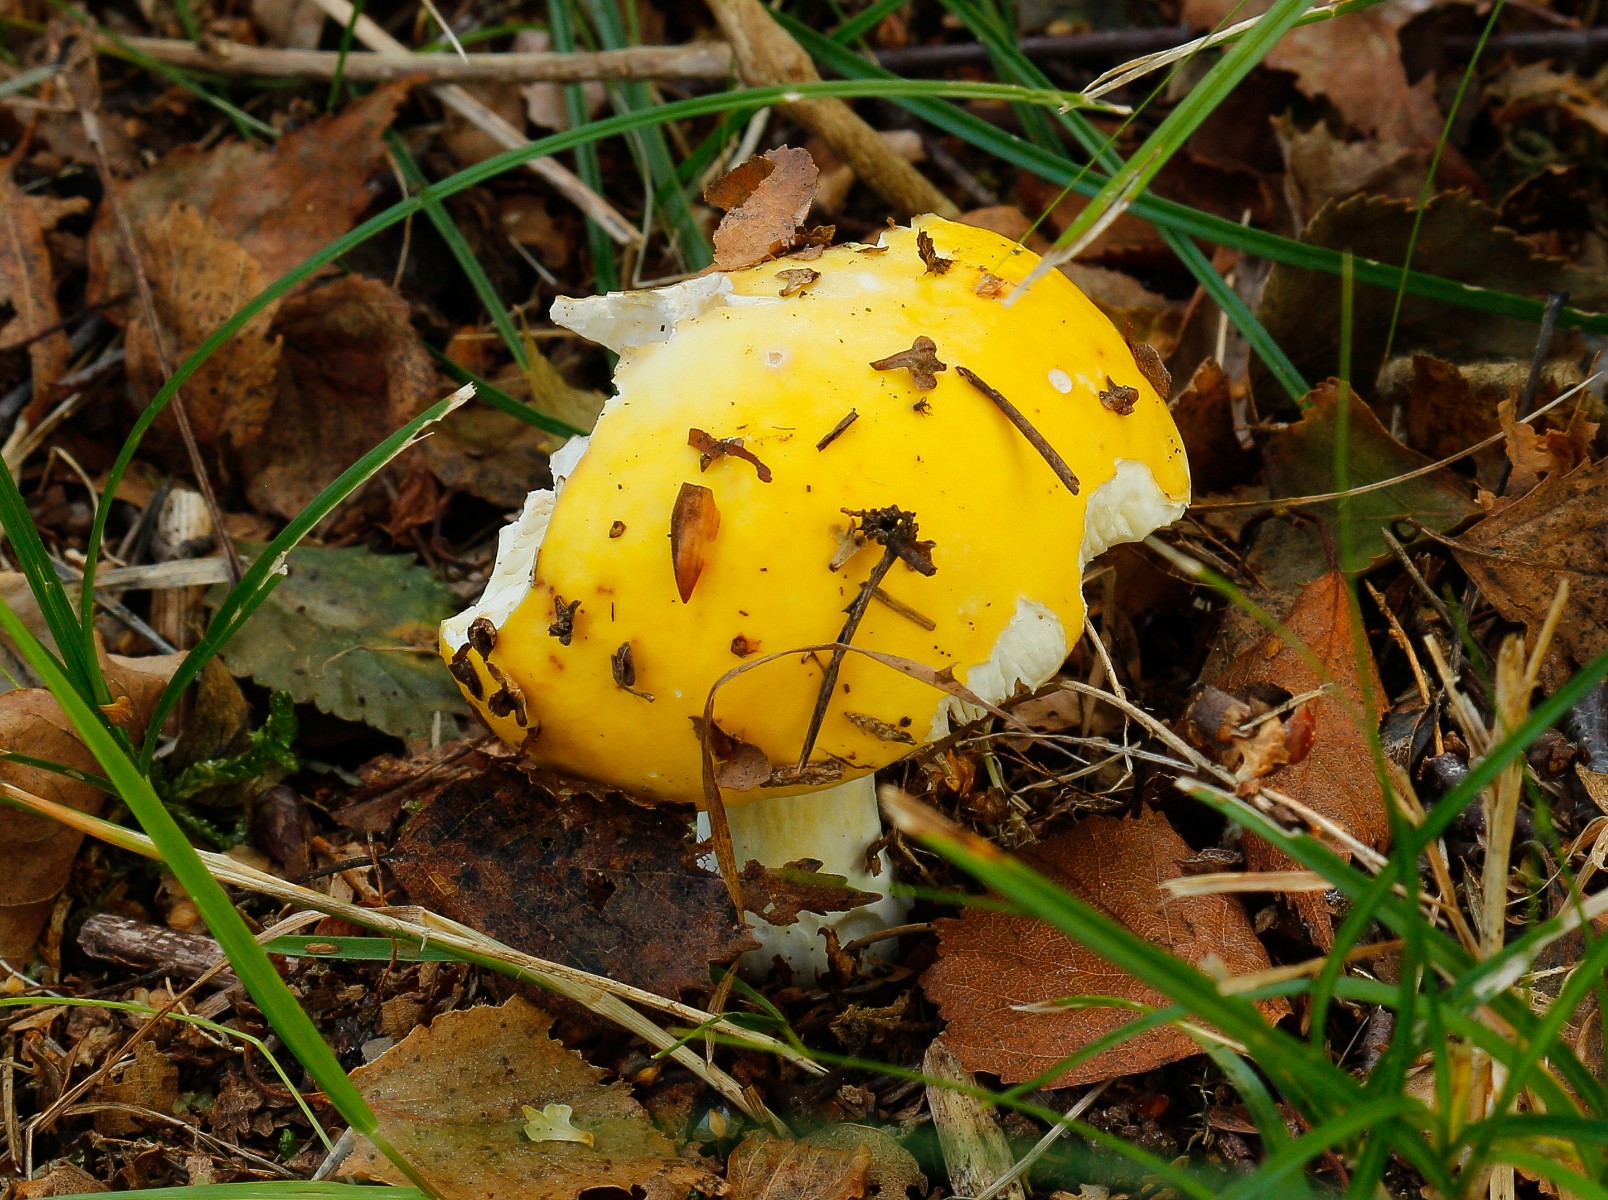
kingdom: Fungi
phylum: Basidiomycota
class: Agaricomycetes
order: Russulales
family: Russulaceae
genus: Russula
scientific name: Russula claroflava
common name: birke-skørhat
